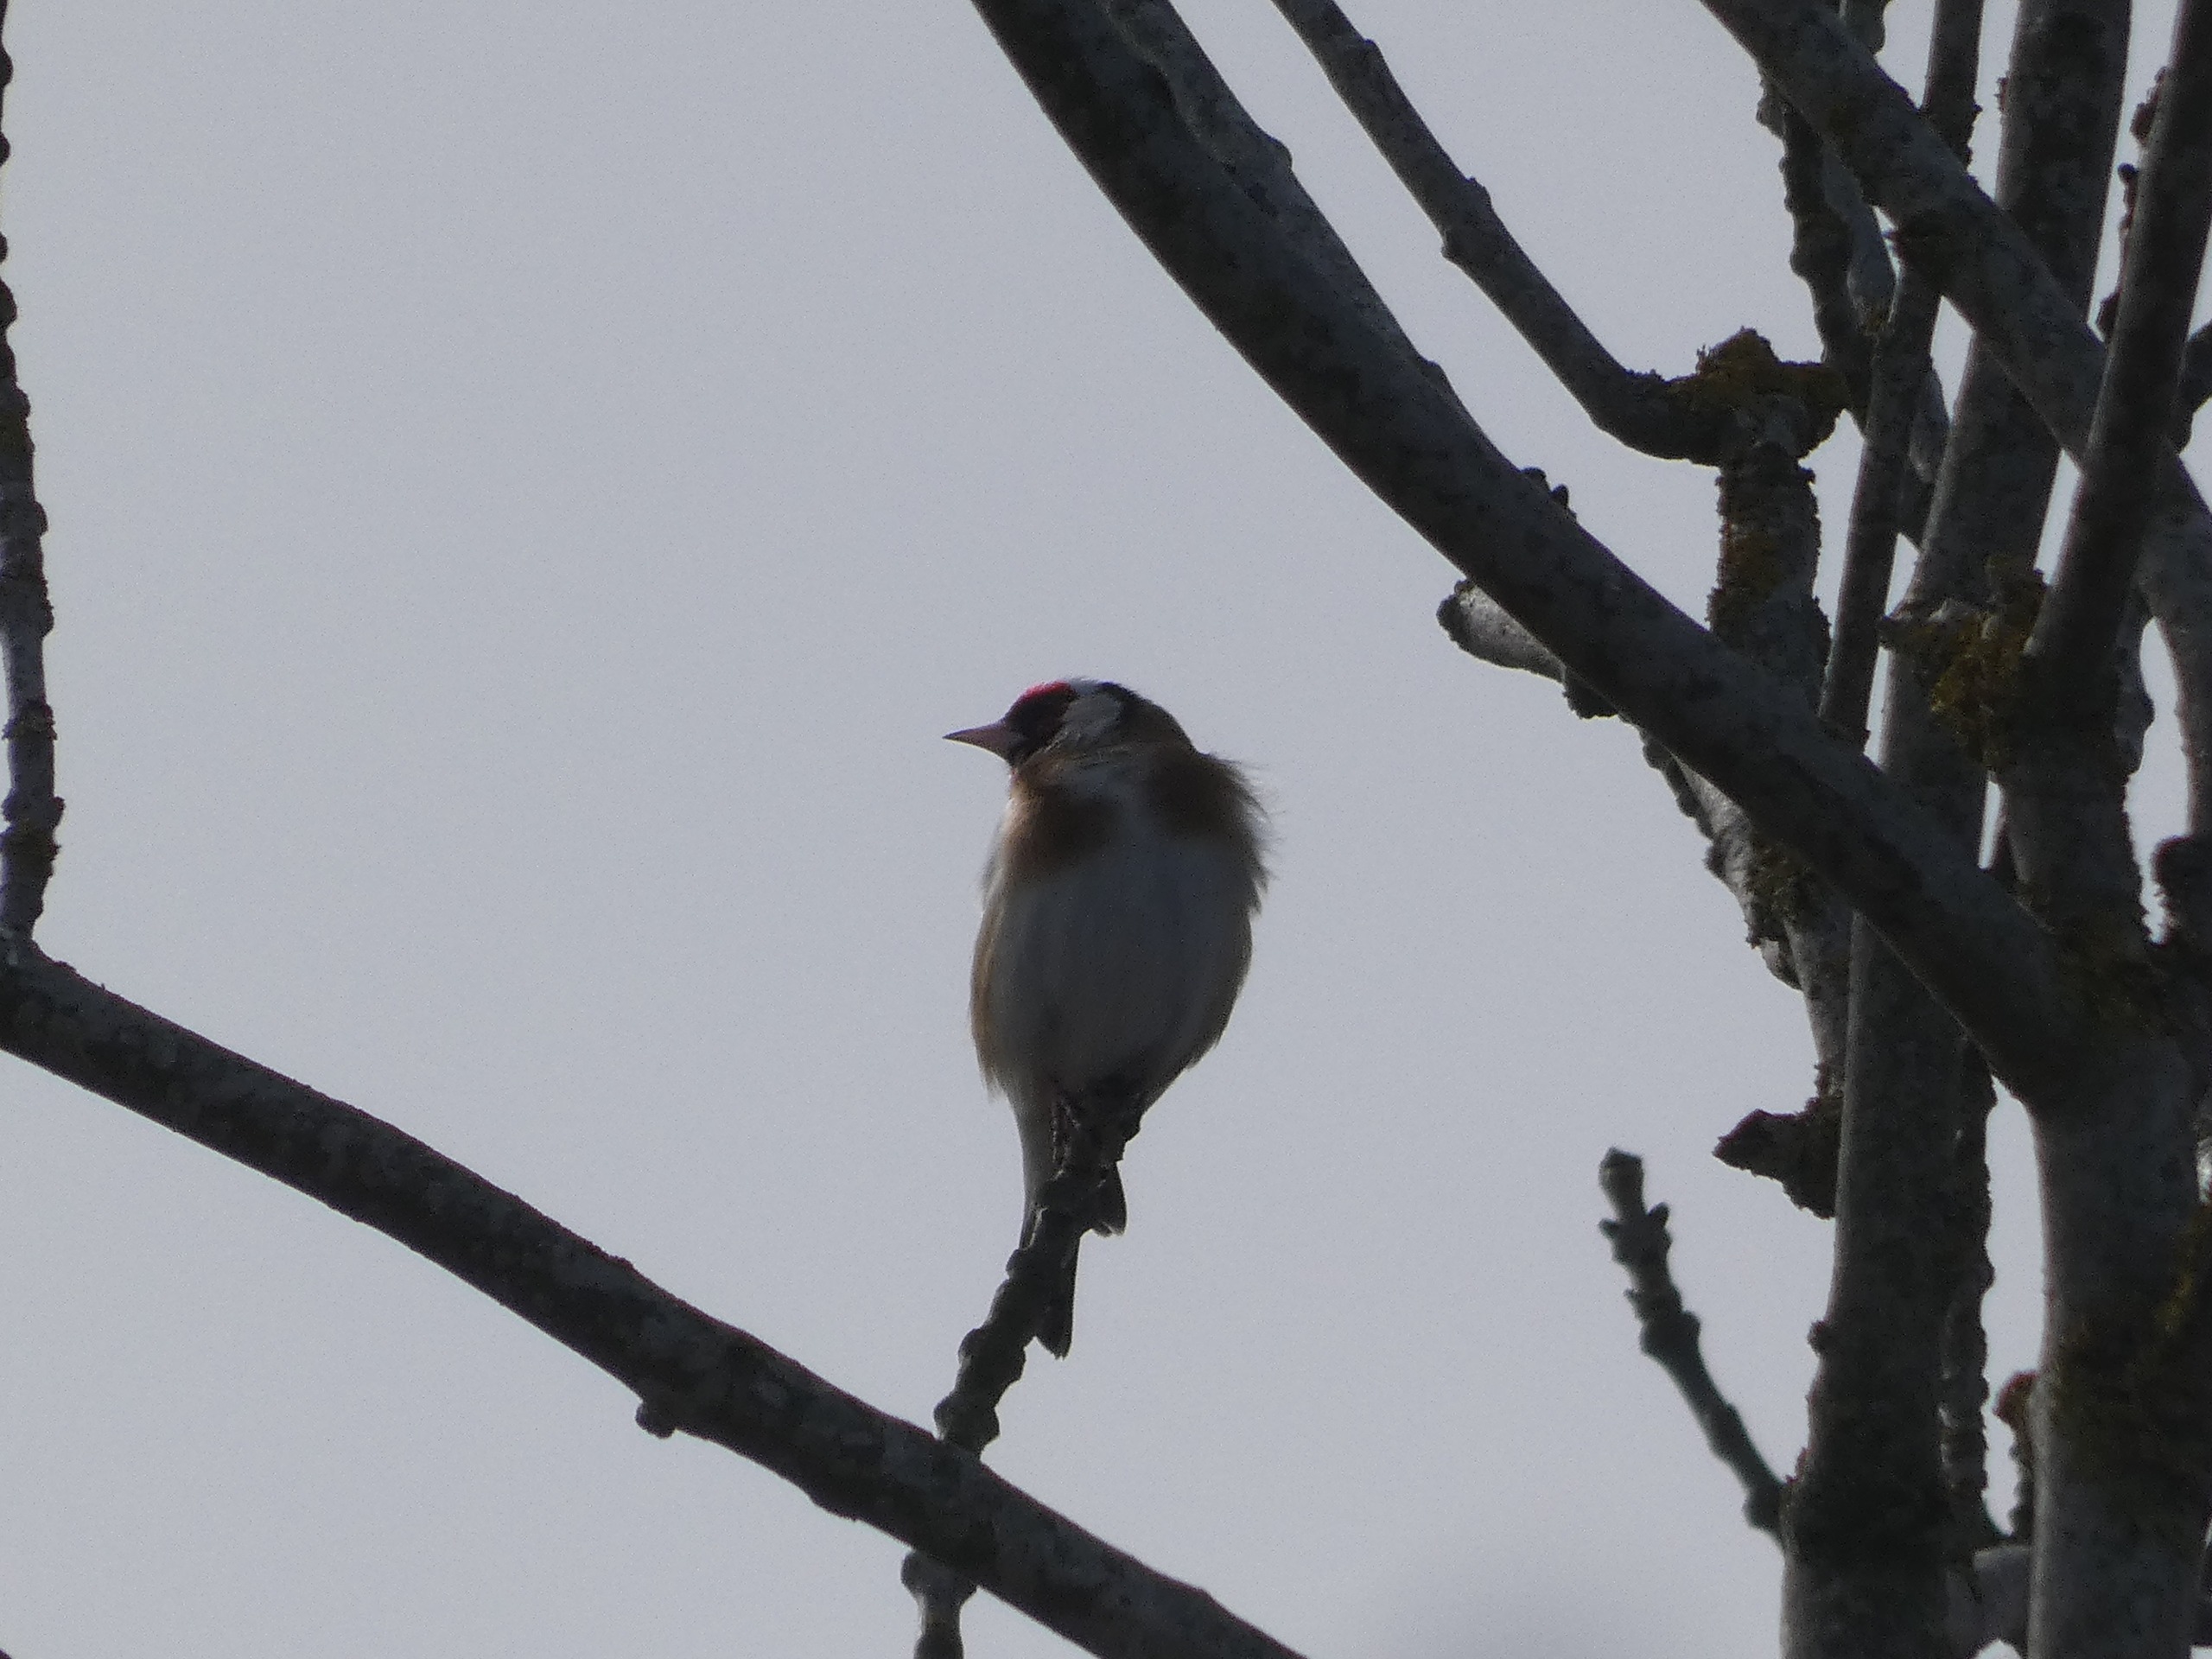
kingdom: Animalia
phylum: Chordata
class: Aves
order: Passeriformes
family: Fringillidae
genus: Carduelis
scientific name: Carduelis carduelis
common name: Stillits
